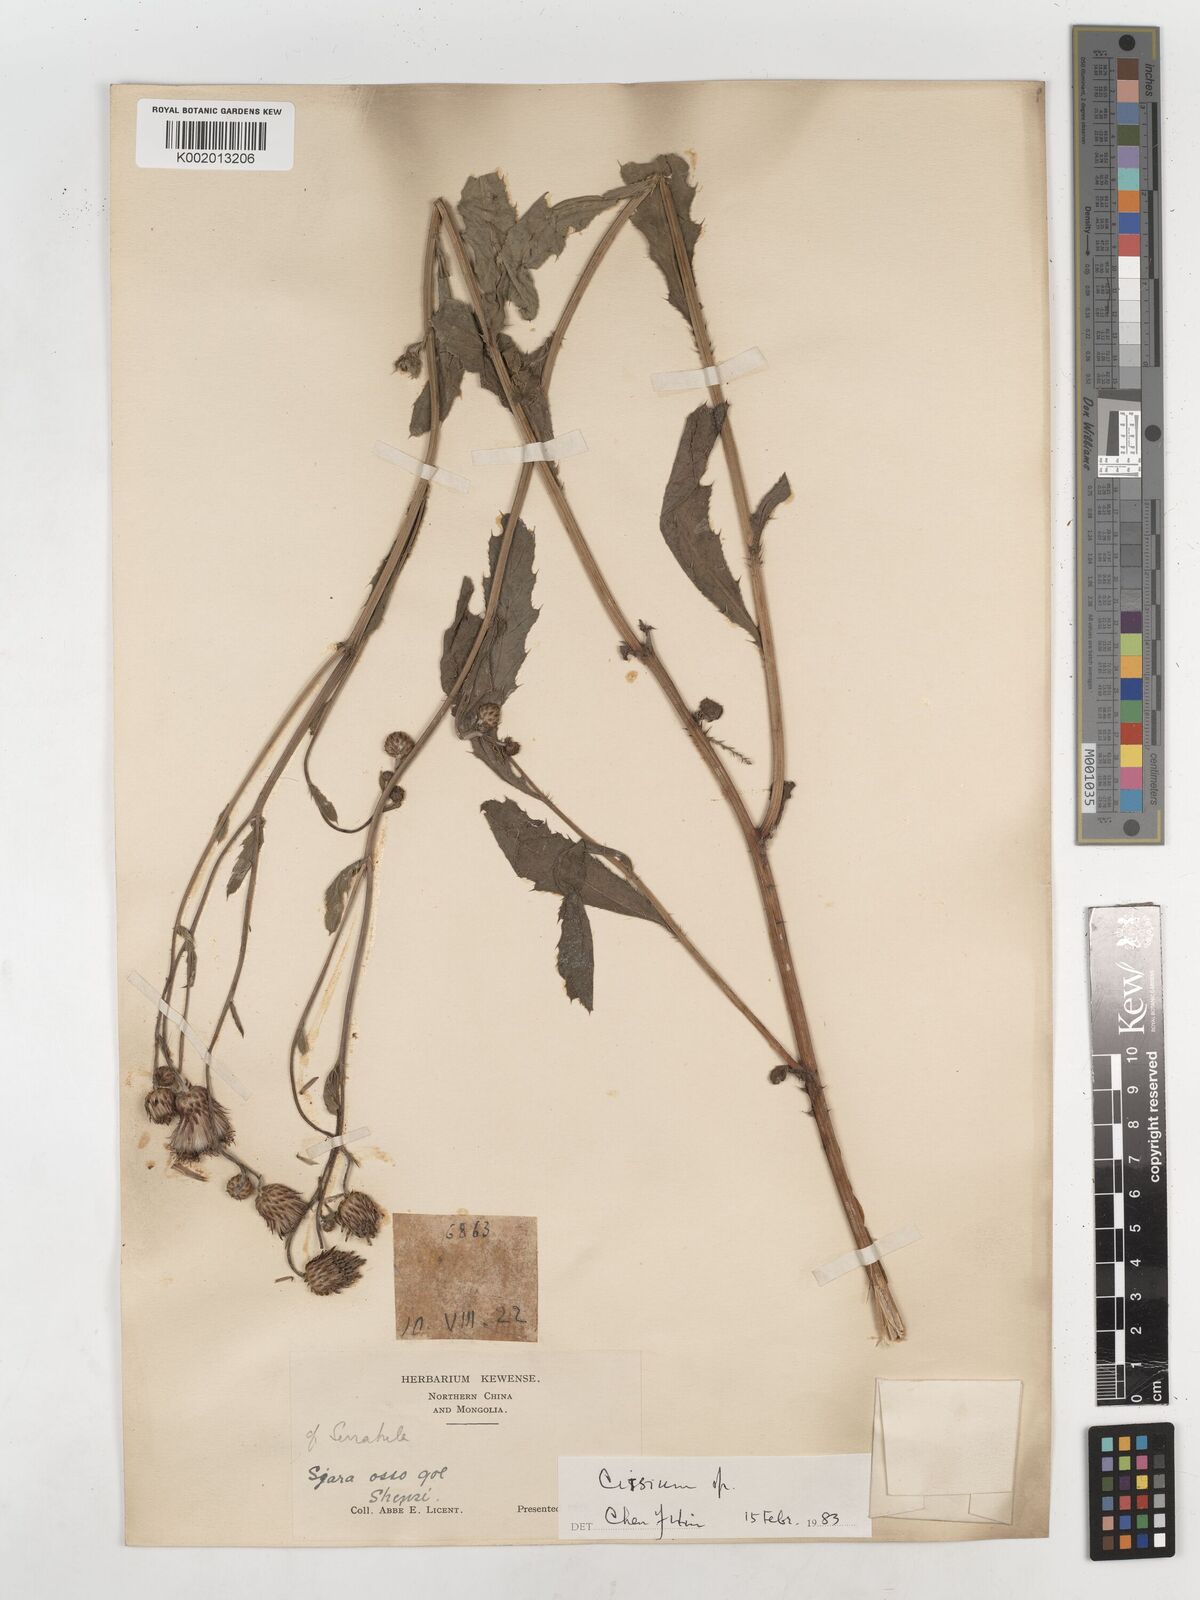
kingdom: Plantae
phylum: Tracheophyta
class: Magnoliopsida
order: Asterales
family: Asteraceae
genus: Serratula
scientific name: Serratula coronata
